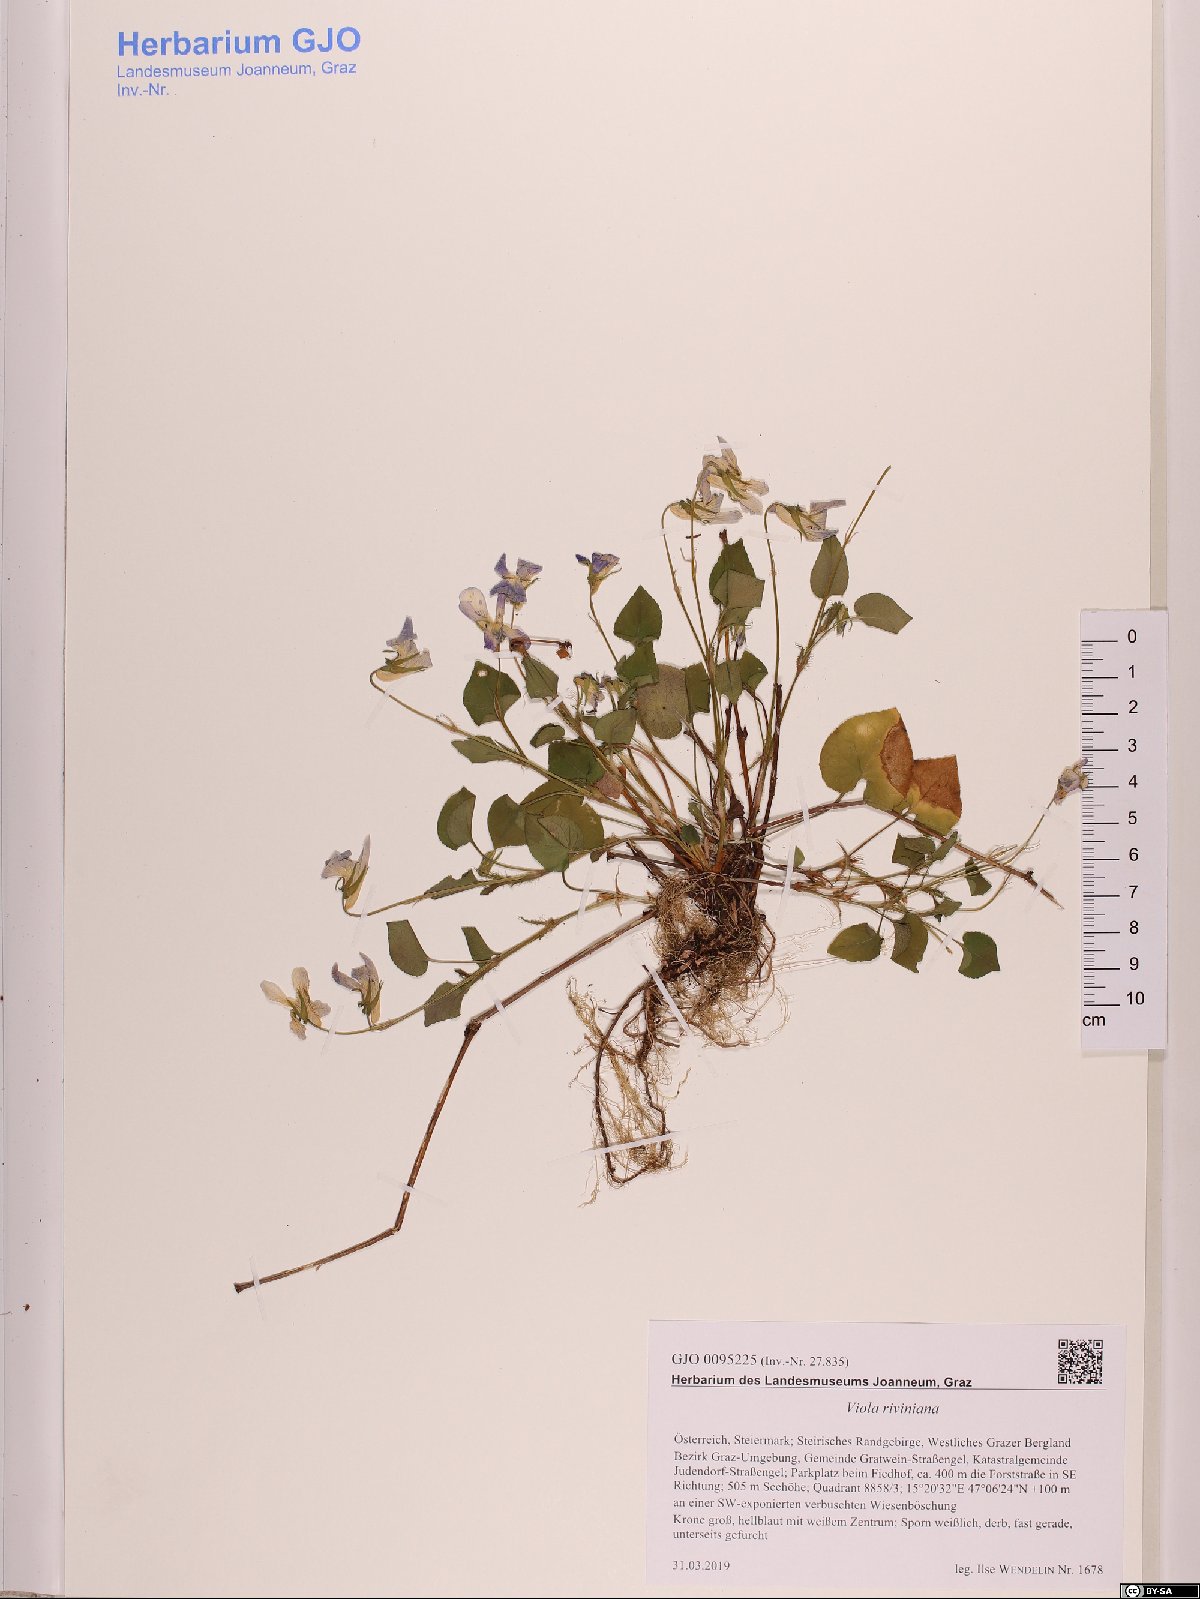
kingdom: Plantae
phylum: Tracheophyta
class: Magnoliopsida
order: Malpighiales
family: Violaceae
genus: Viola
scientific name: Viola riviniana
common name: Common dog-violet
